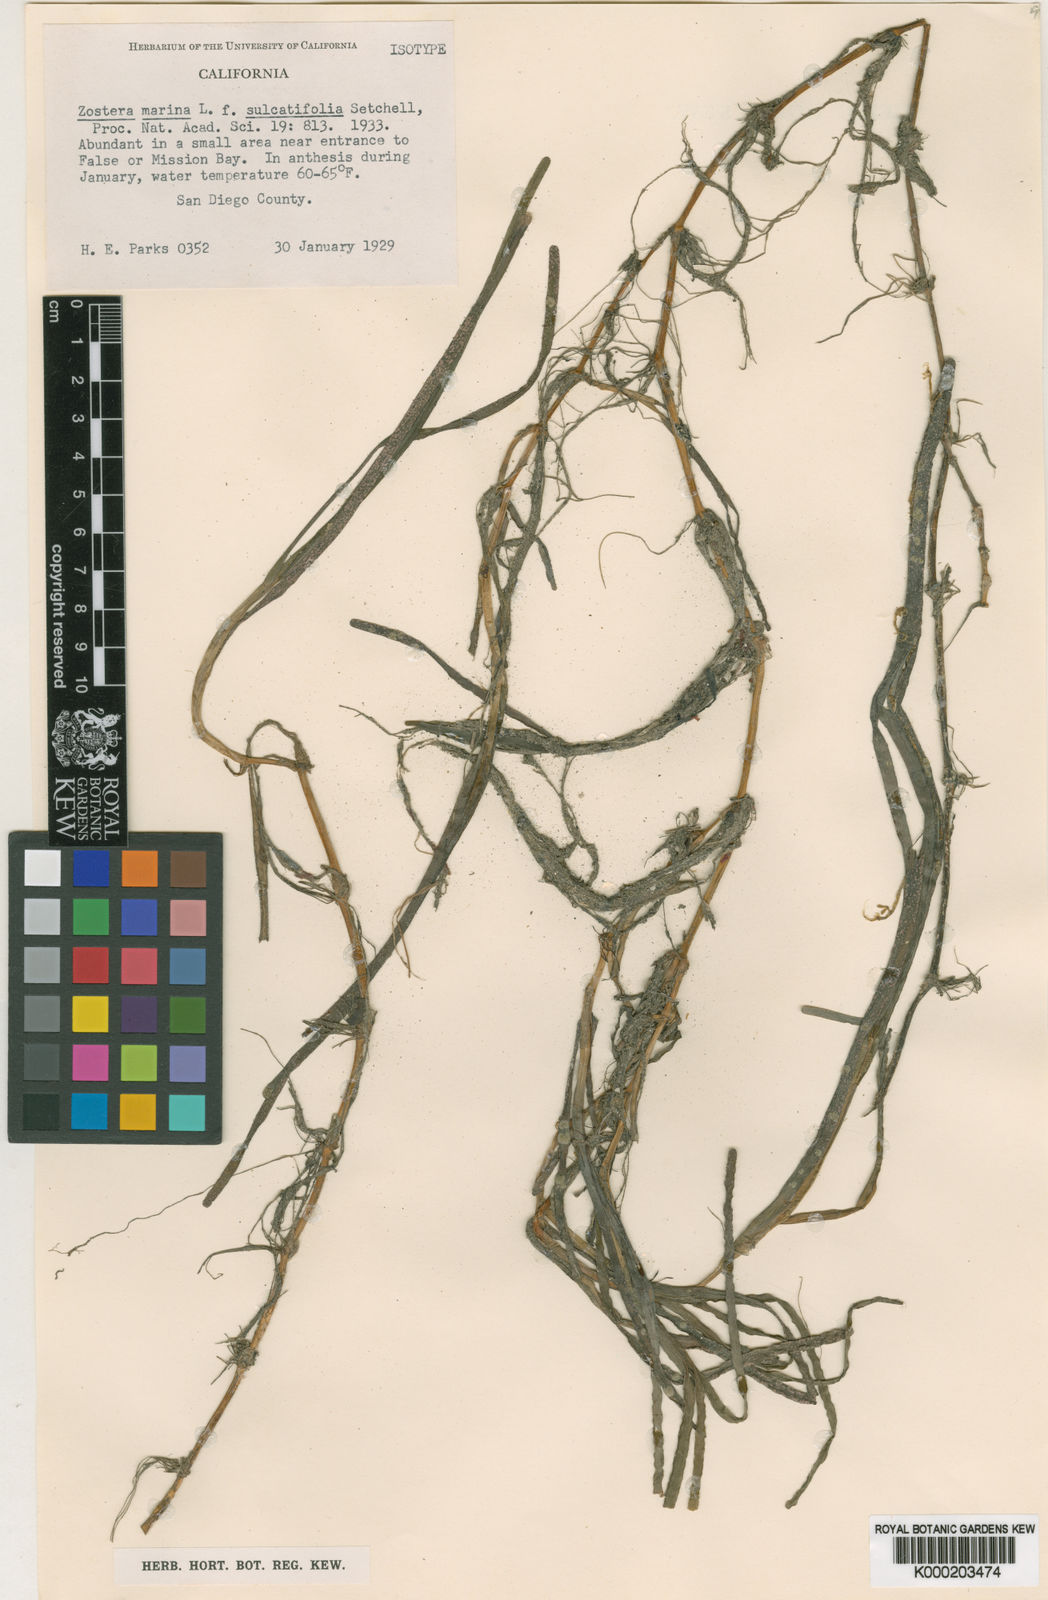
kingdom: Plantae
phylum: Tracheophyta
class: Liliopsida
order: Alismatales
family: Zosteraceae
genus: Zostera
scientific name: Zostera marina
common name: Eelgrass
